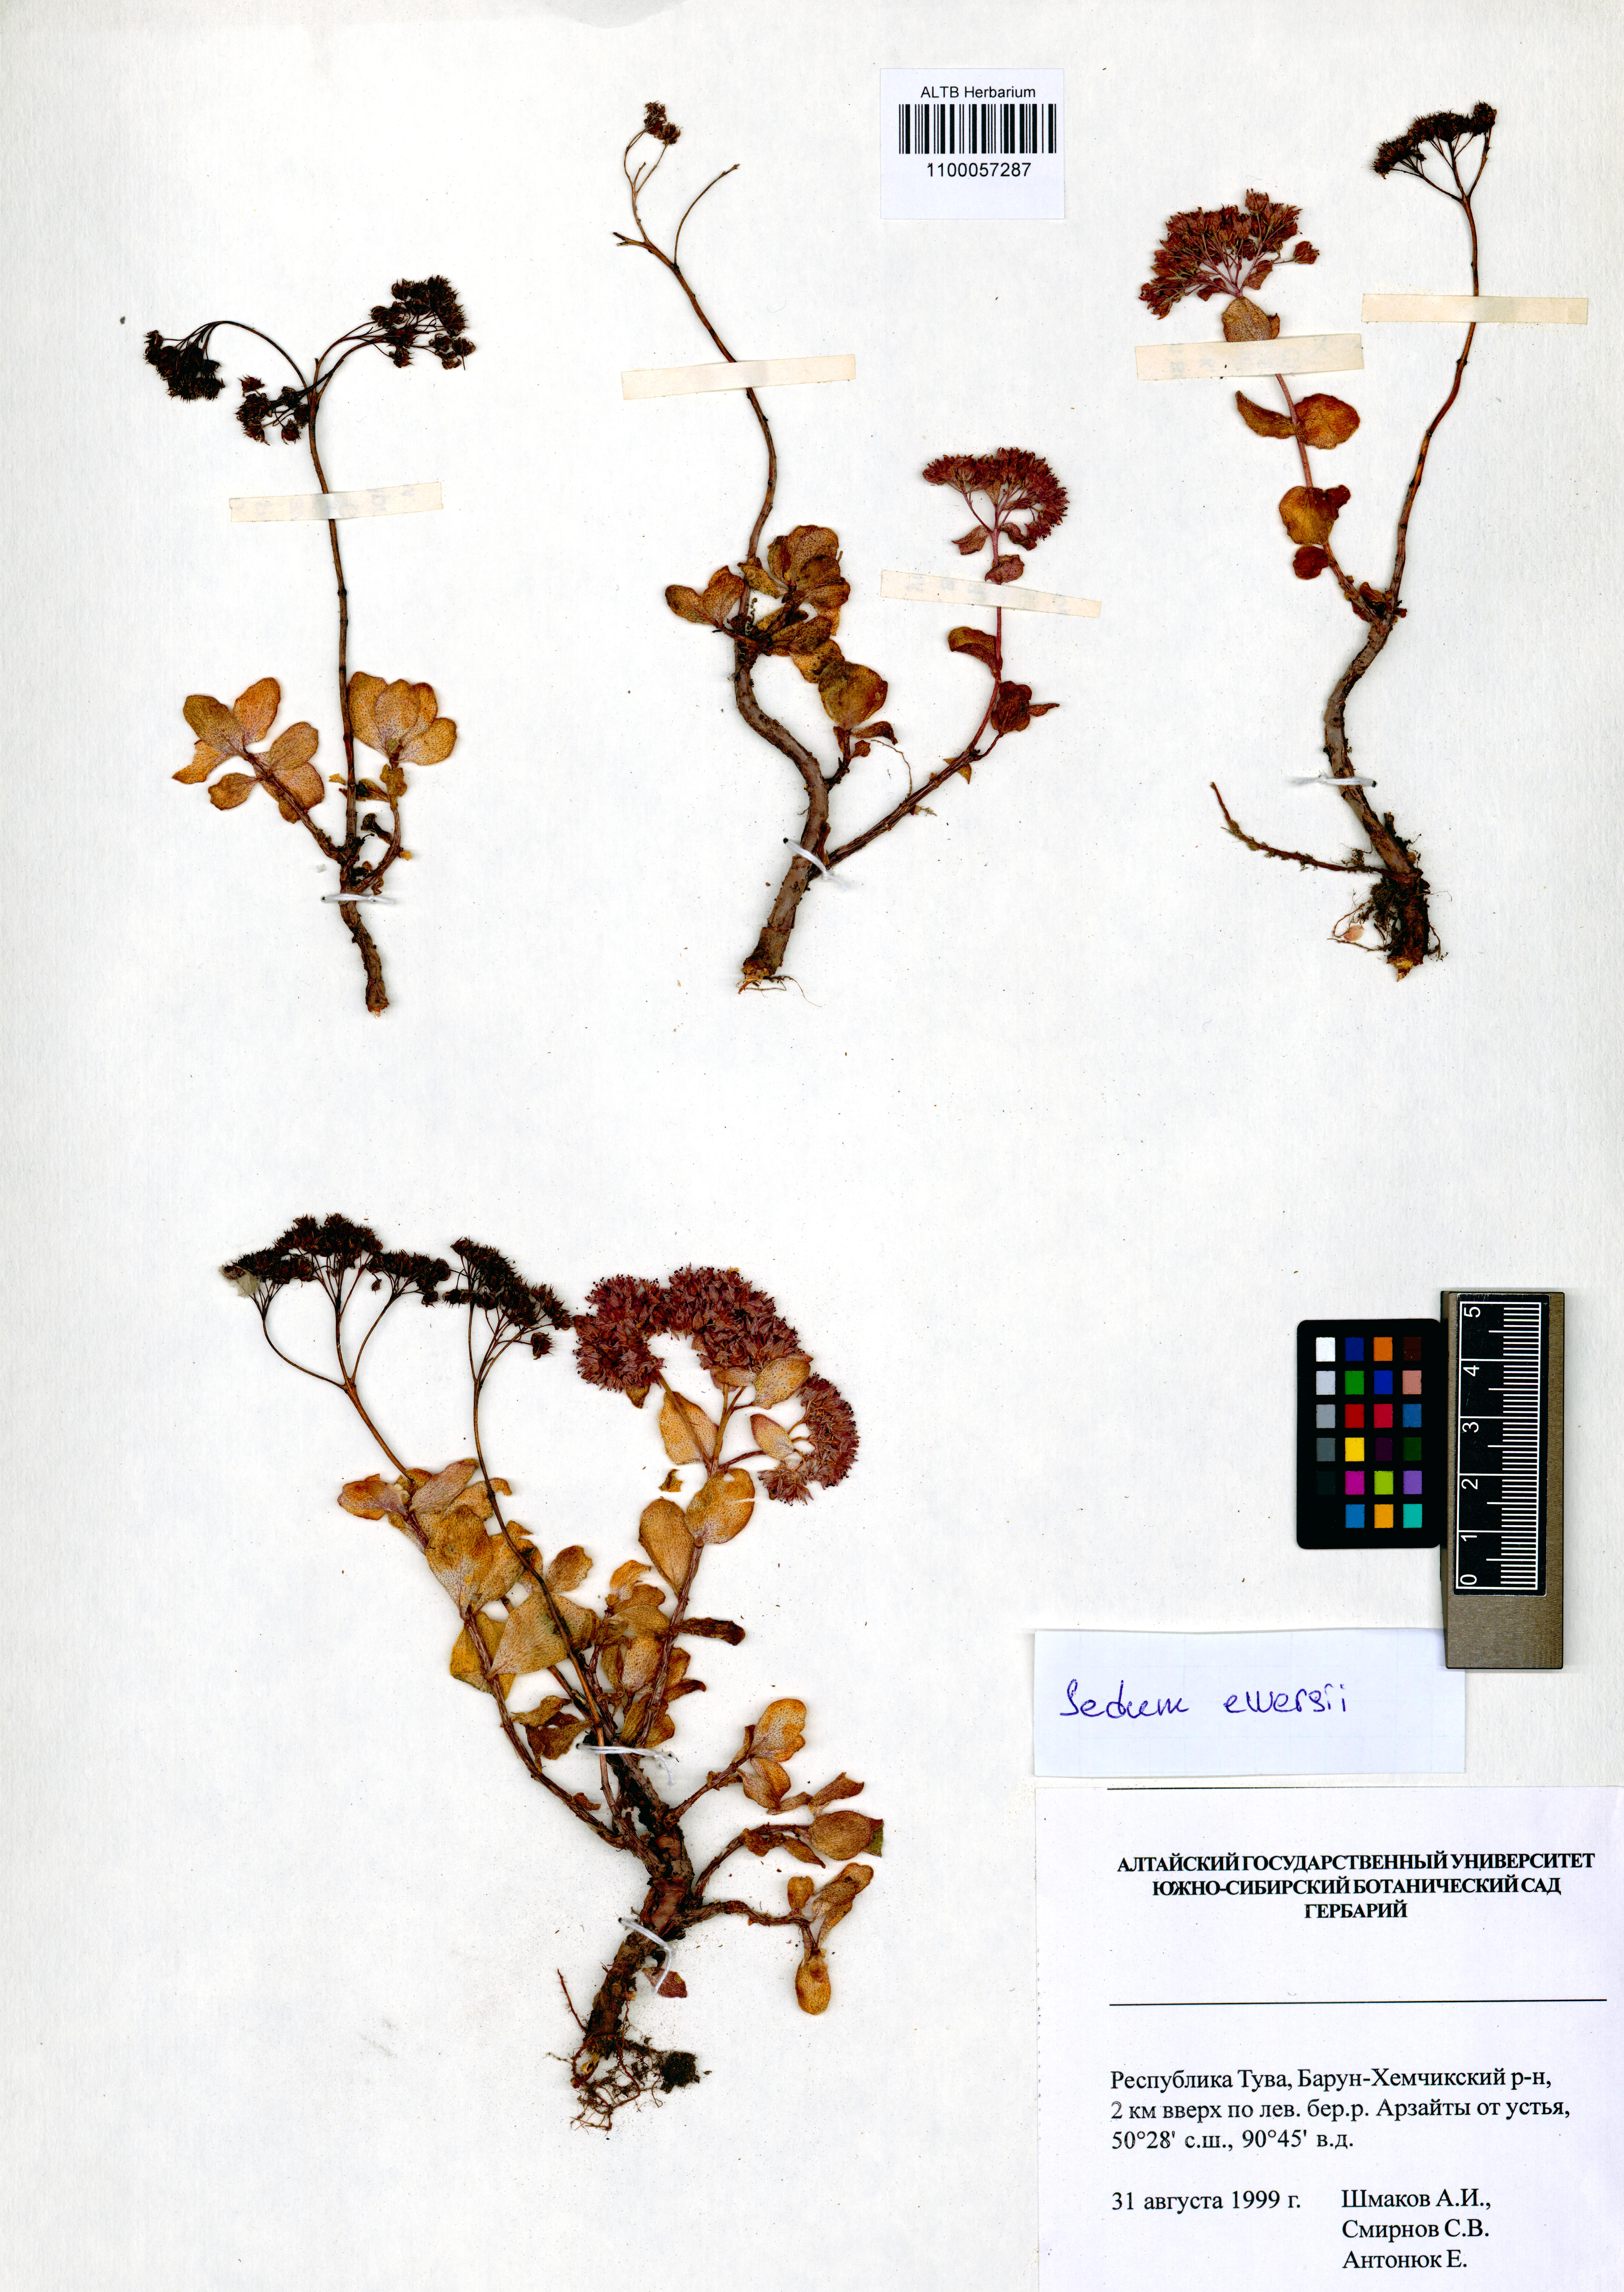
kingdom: Plantae
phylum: Tracheophyta
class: Magnoliopsida
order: Saxifragales
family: Crassulaceae
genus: Hylotelephium
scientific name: Hylotelephium ewersii
